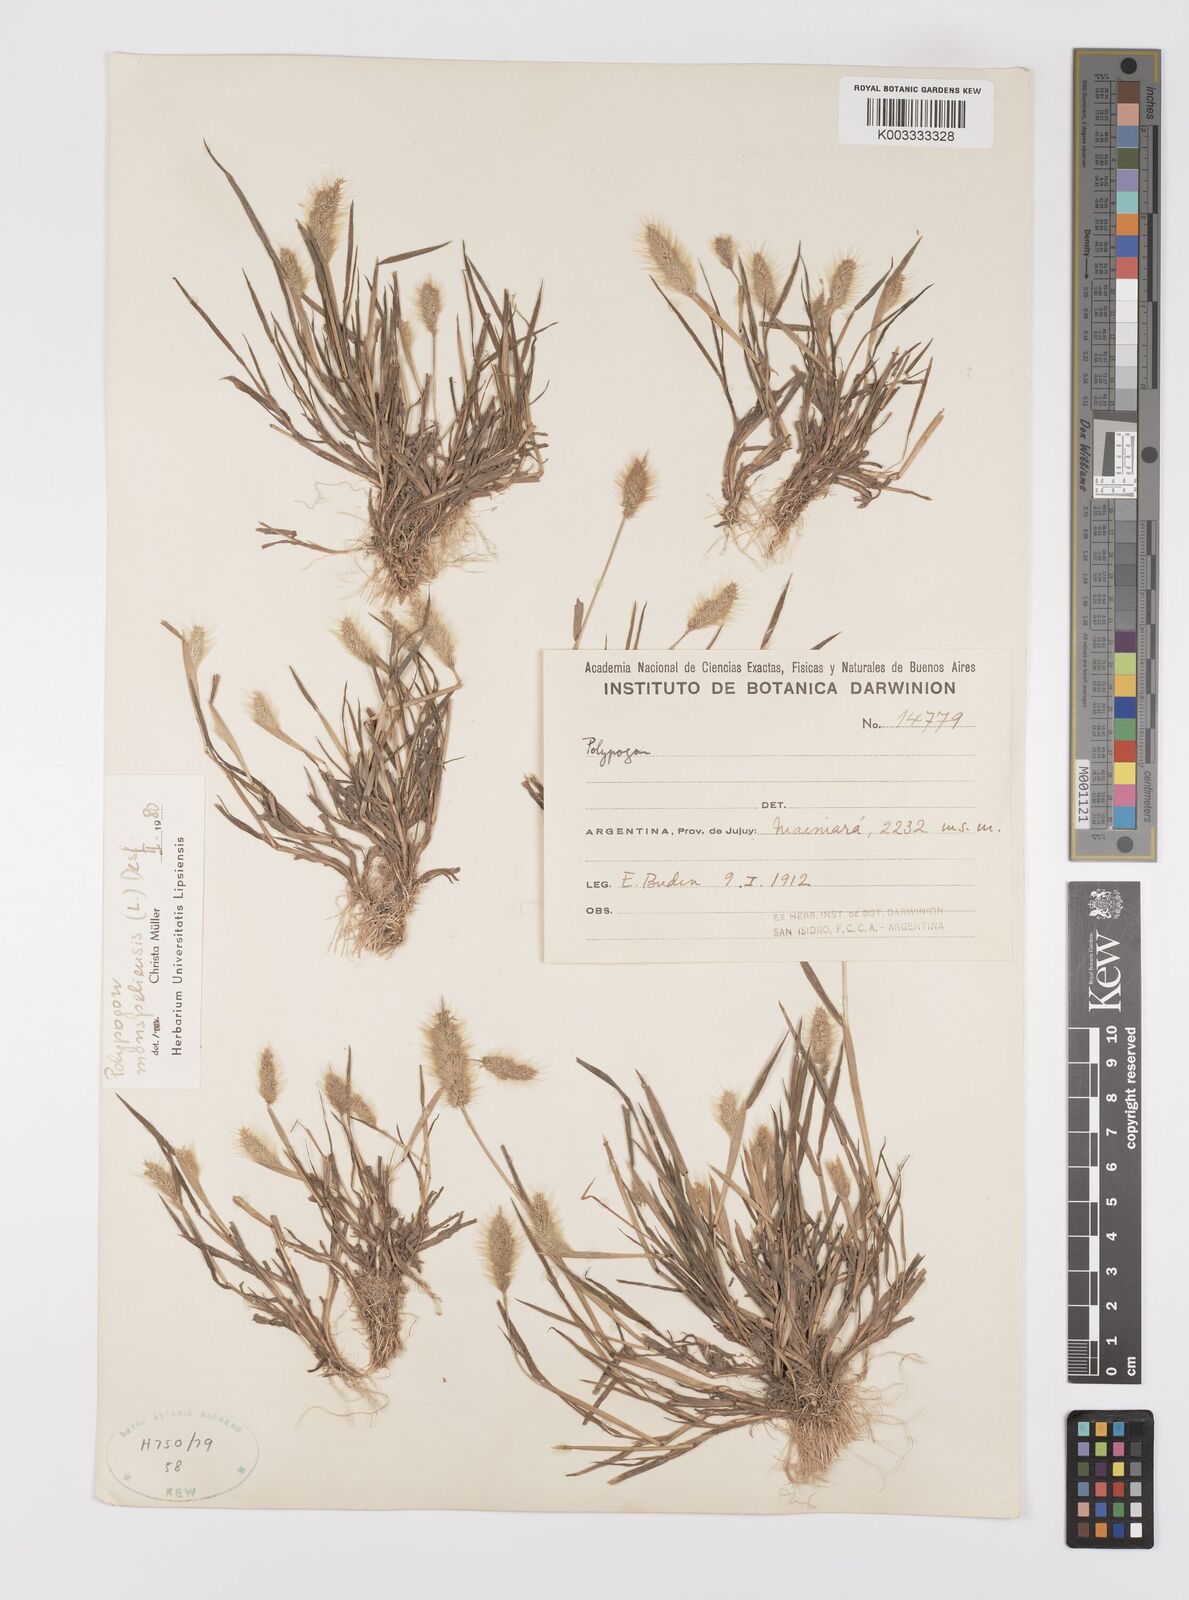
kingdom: Plantae
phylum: Tracheophyta
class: Liliopsida
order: Poales
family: Poaceae
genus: Polypogon
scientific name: Polypogon monspeliensis
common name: Annual rabbitsfoot grass
